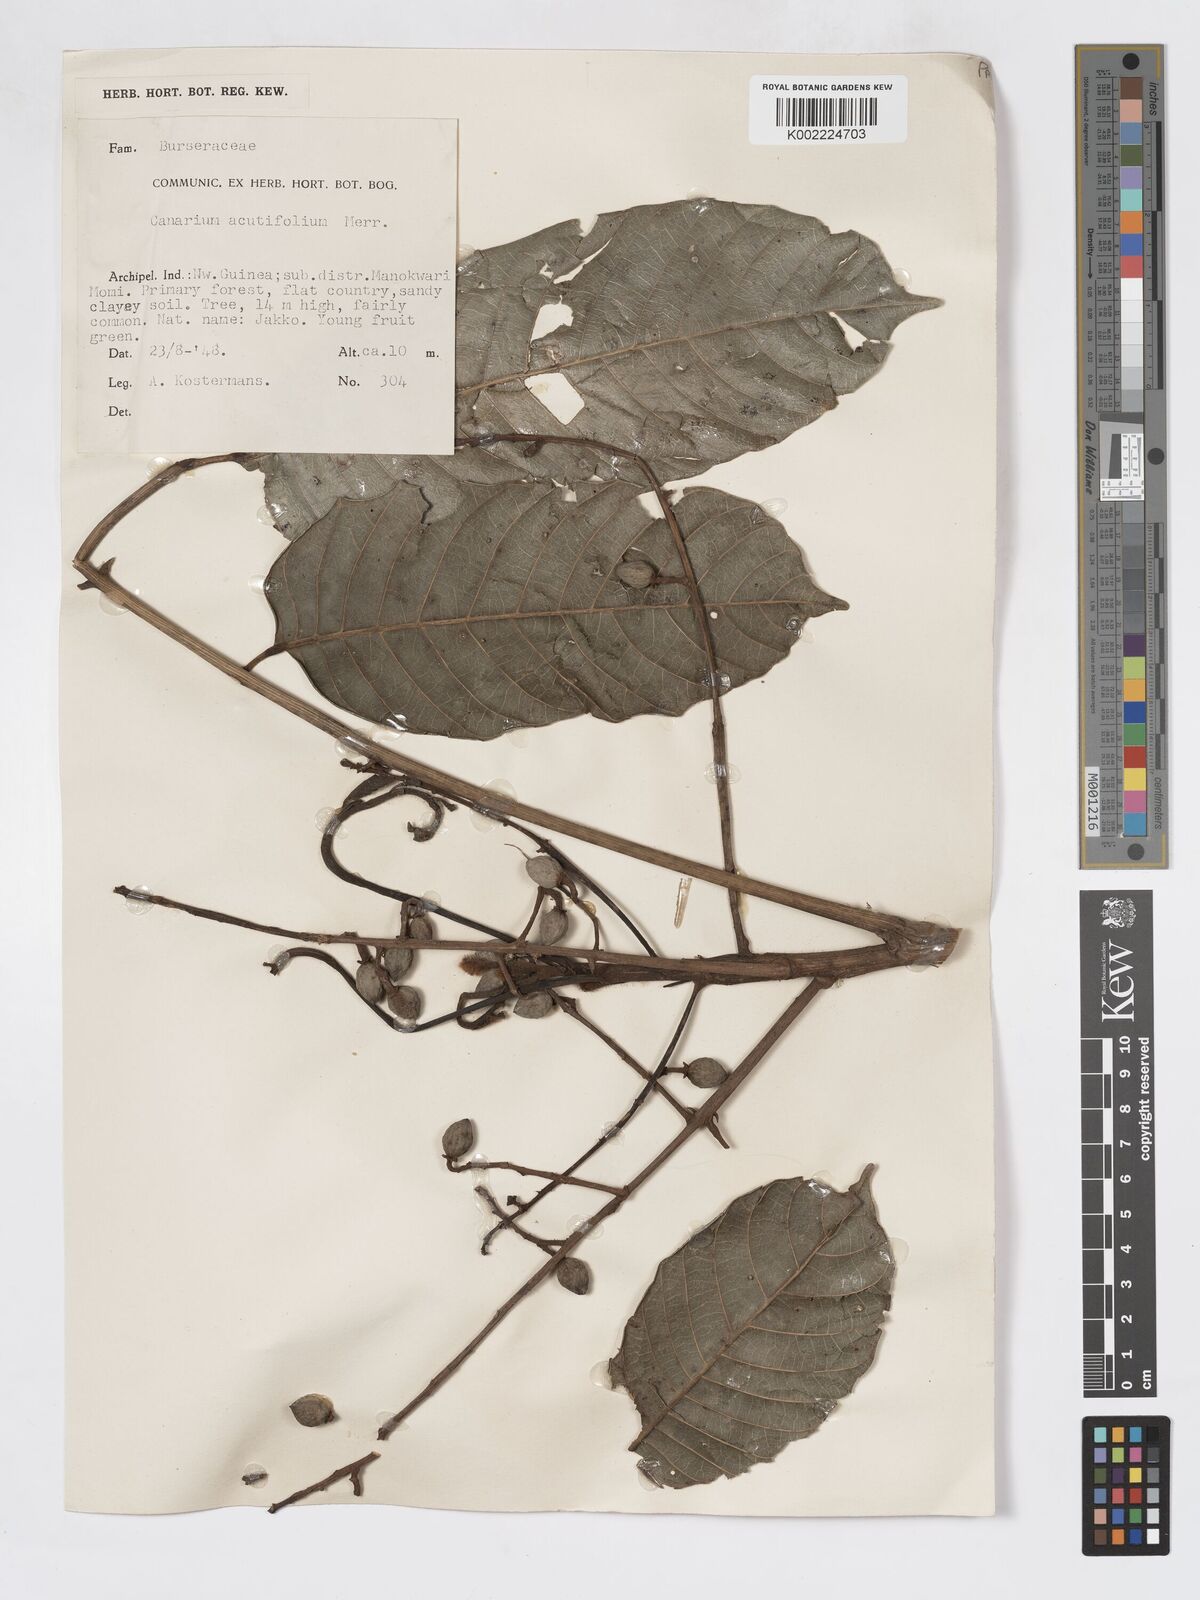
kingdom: Plantae
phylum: Tracheophyta
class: Magnoliopsida
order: Sapindales
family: Burseraceae
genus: Canarium
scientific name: Canarium acutifolium
